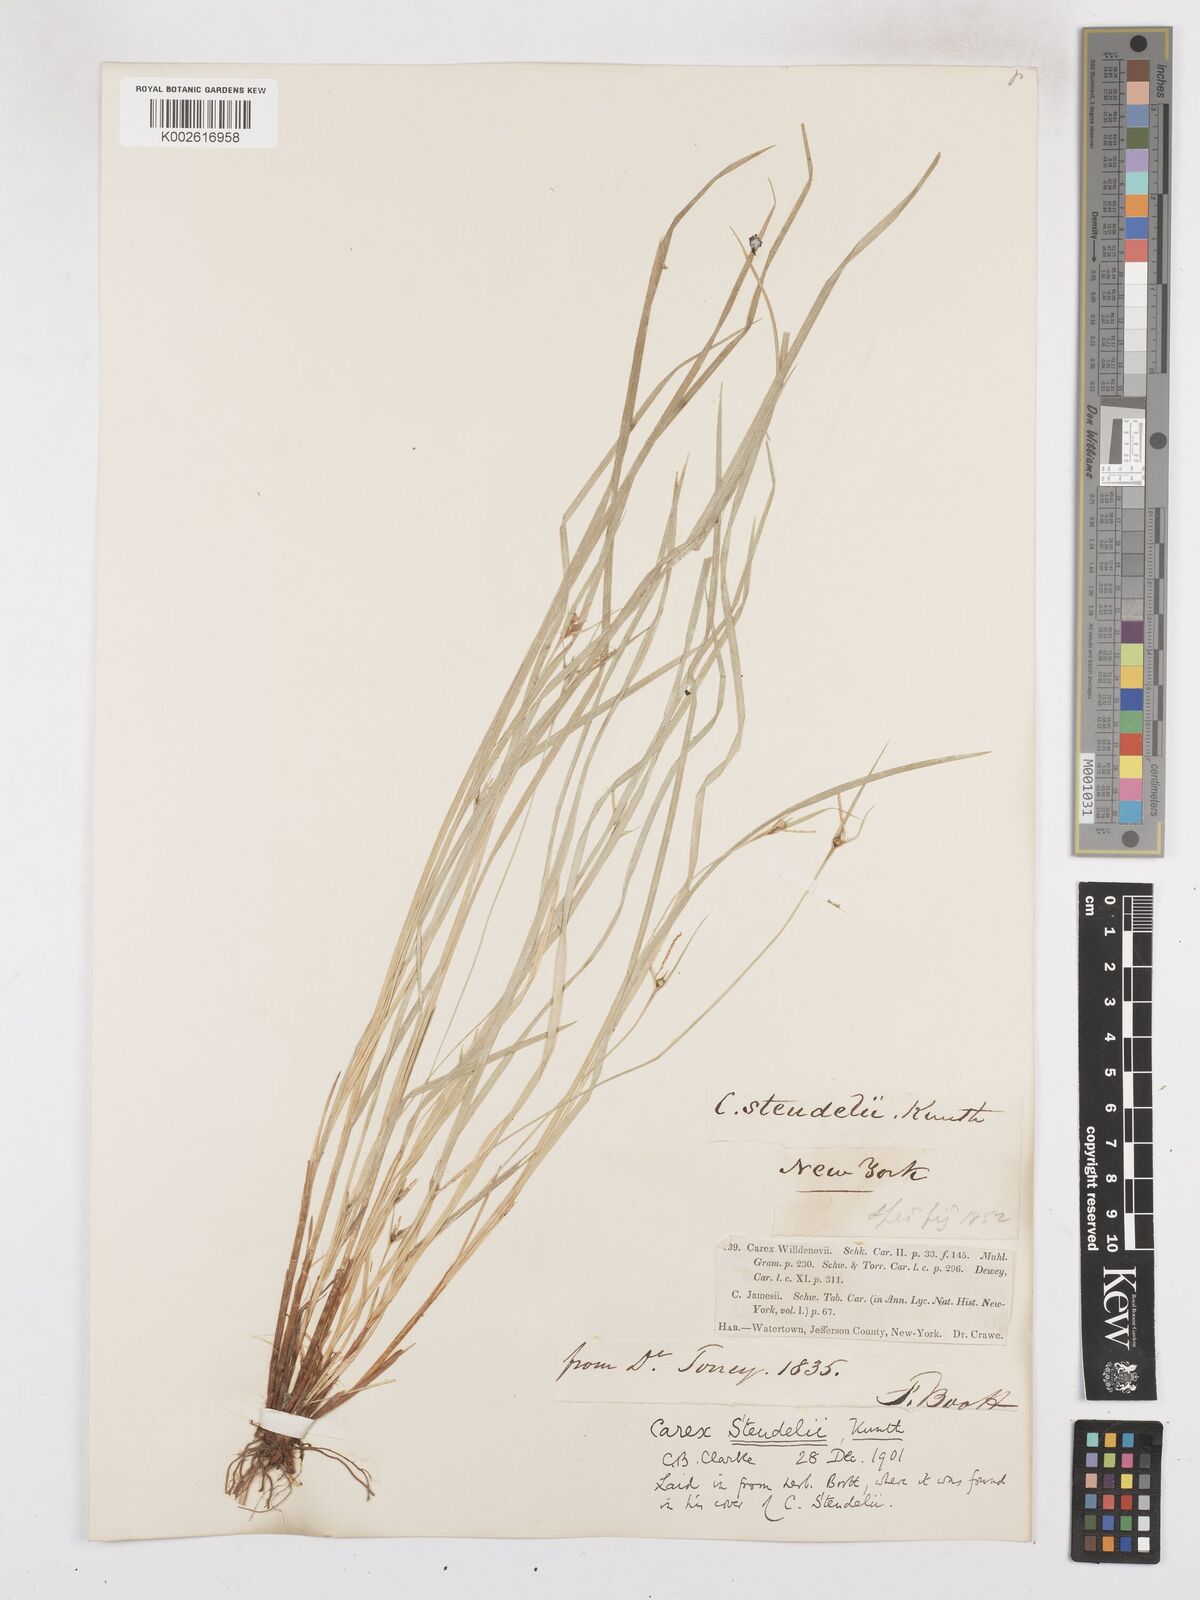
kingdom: Plantae
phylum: Tracheophyta
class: Liliopsida
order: Poales
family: Cyperaceae
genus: Carex
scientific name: Carex jamesii
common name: Grass sedge
